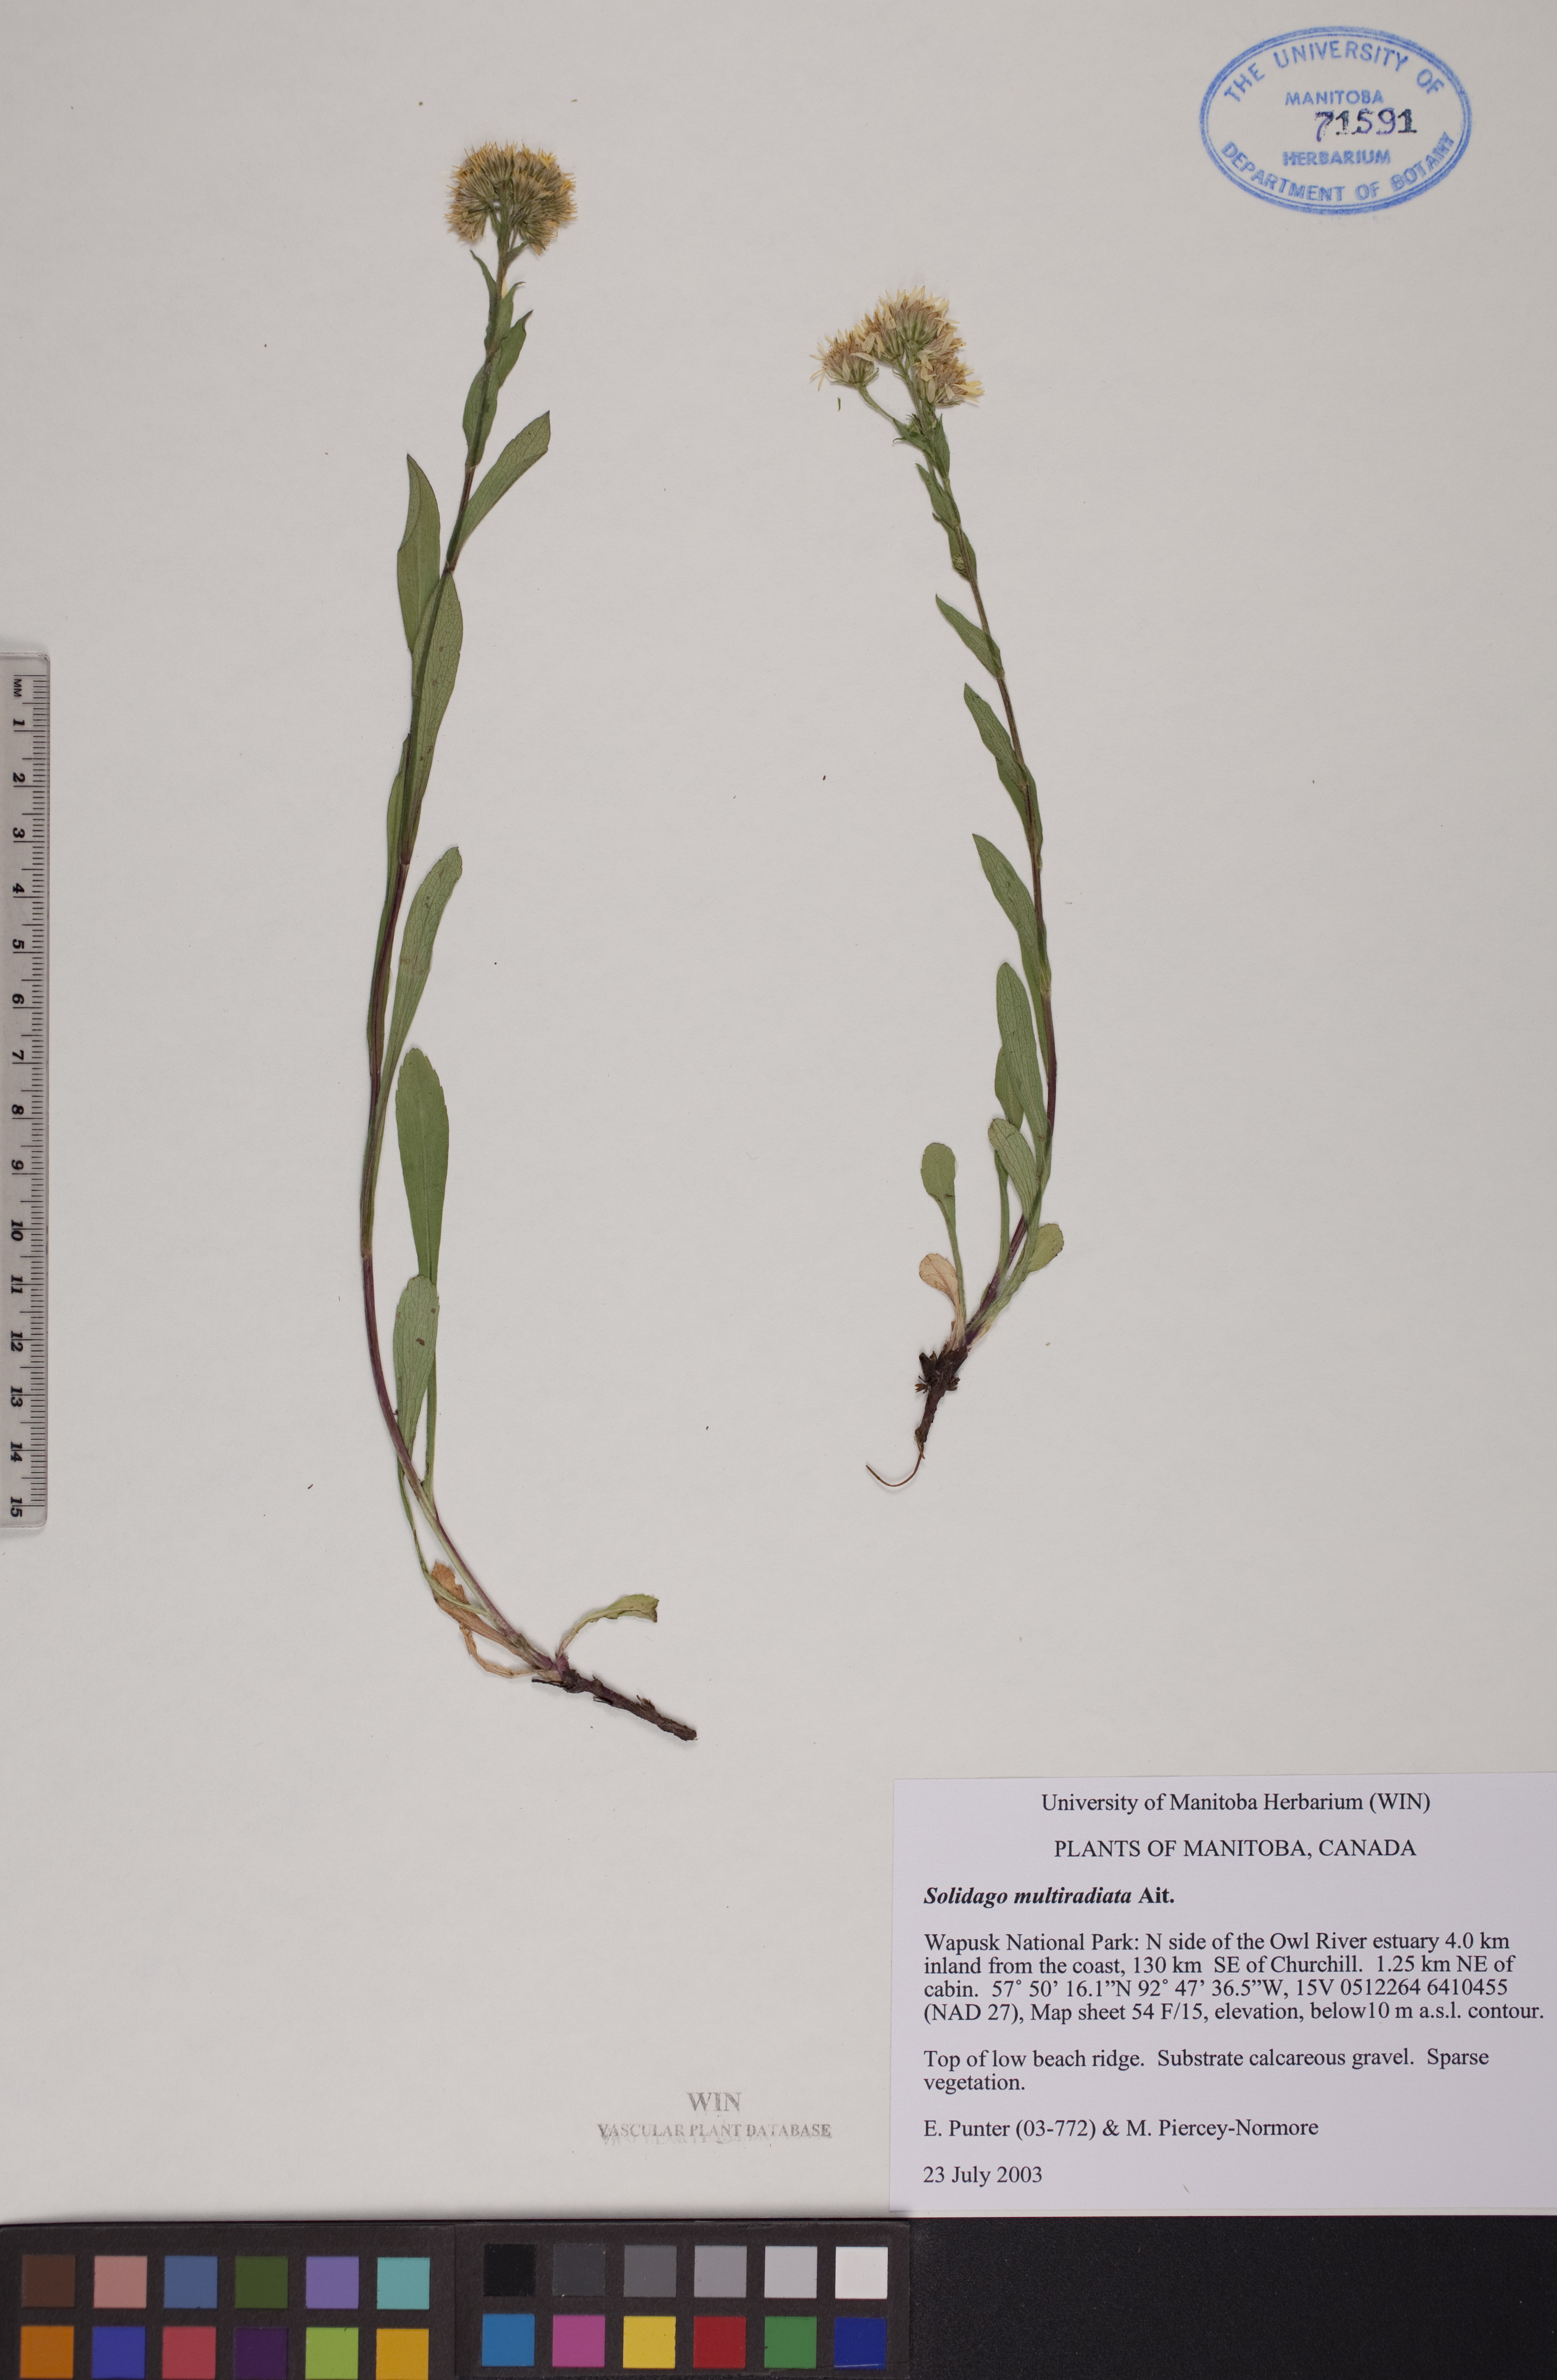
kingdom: Plantae
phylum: Tracheophyta
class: Magnoliopsida
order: Asterales
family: Asteraceae
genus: Solidago
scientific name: Solidago multiradiata
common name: Northern goldenrod
